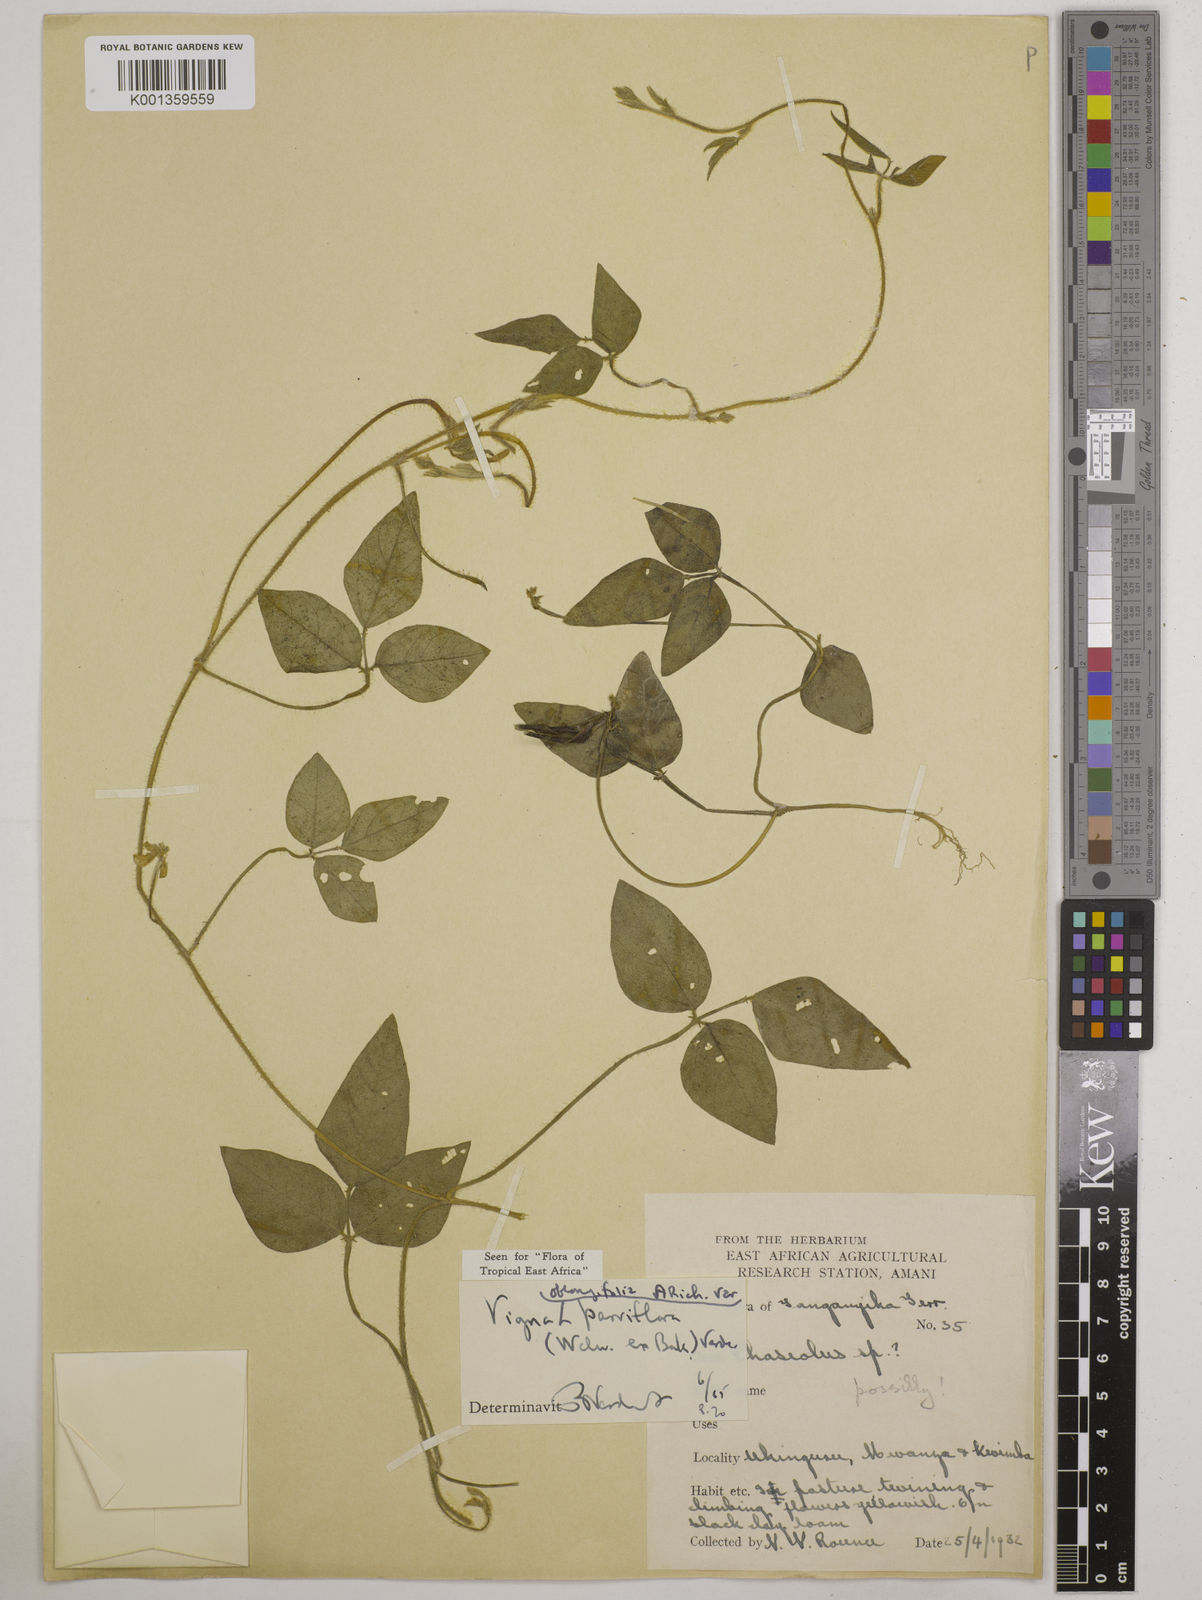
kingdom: Plantae
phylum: Tracheophyta
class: Magnoliopsida
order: Fabales
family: Fabaceae
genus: Vigna
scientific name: Vigna
